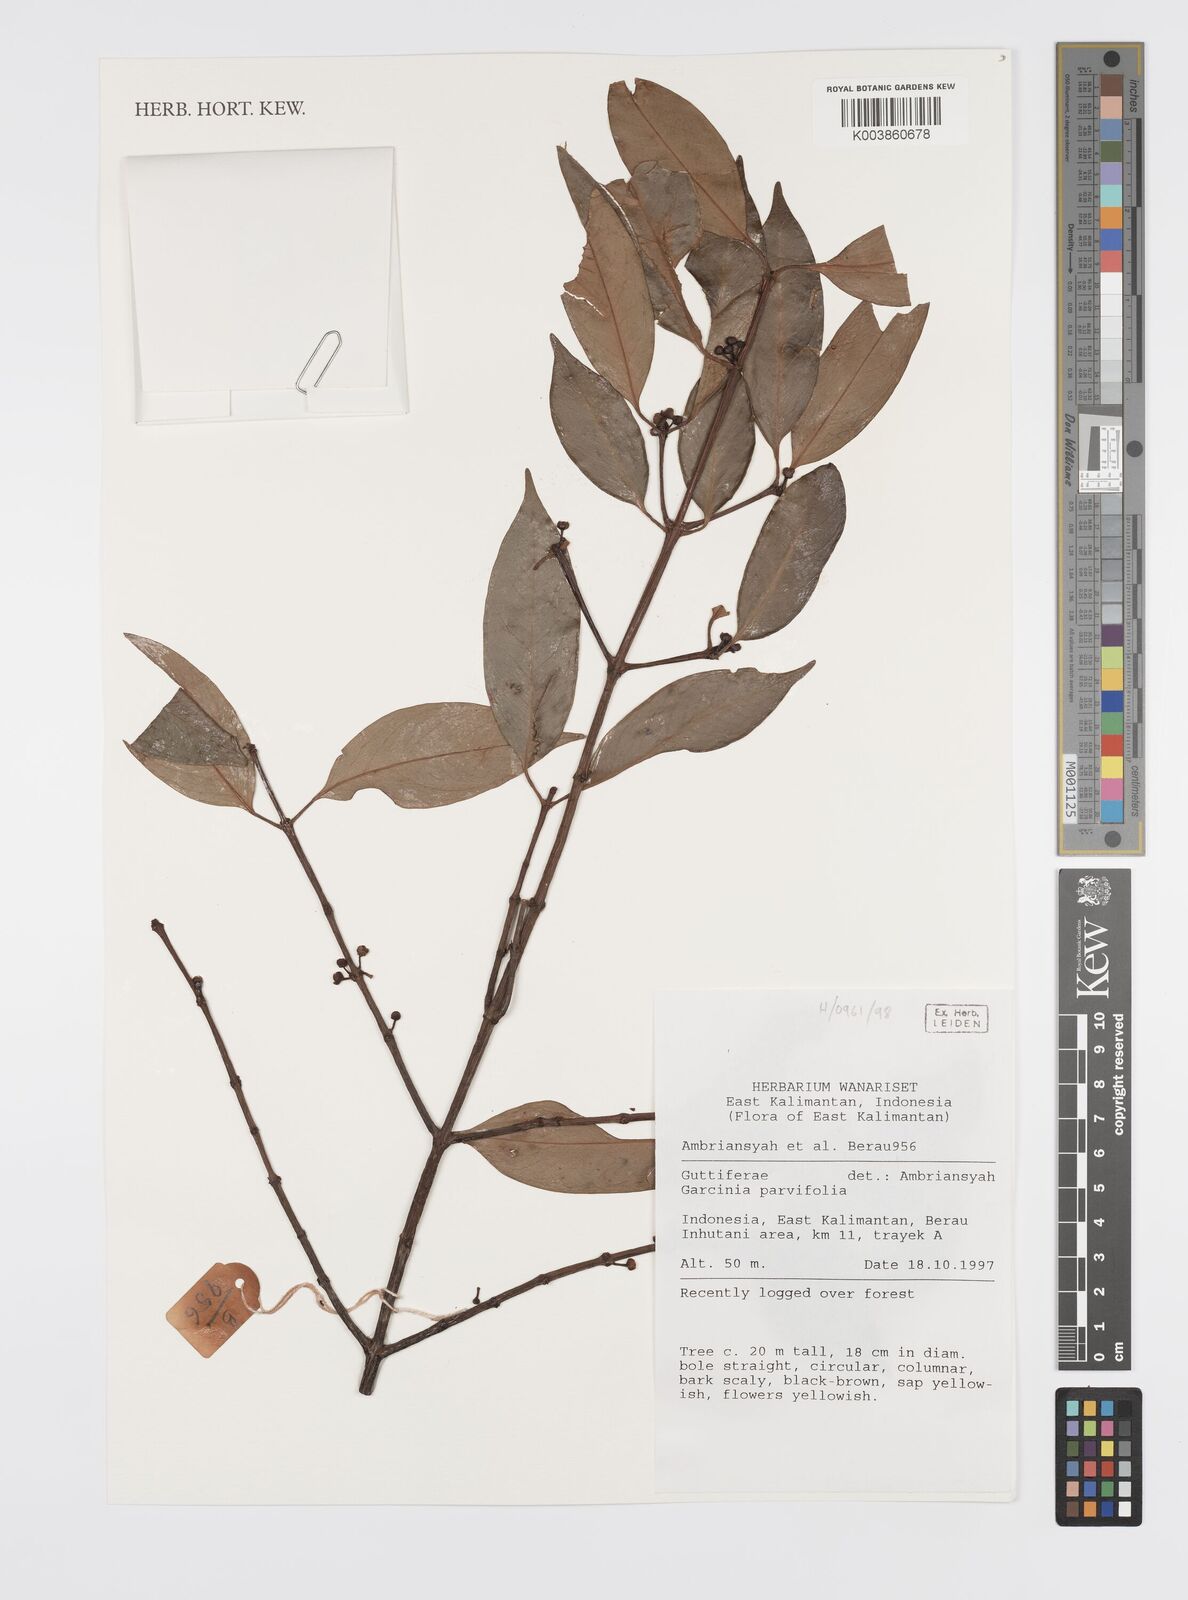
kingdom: Plantae
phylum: Tracheophyta
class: Magnoliopsida
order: Malpighiales
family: Clusiaceae
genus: Garcinia
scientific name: Garcinia parvifolia
